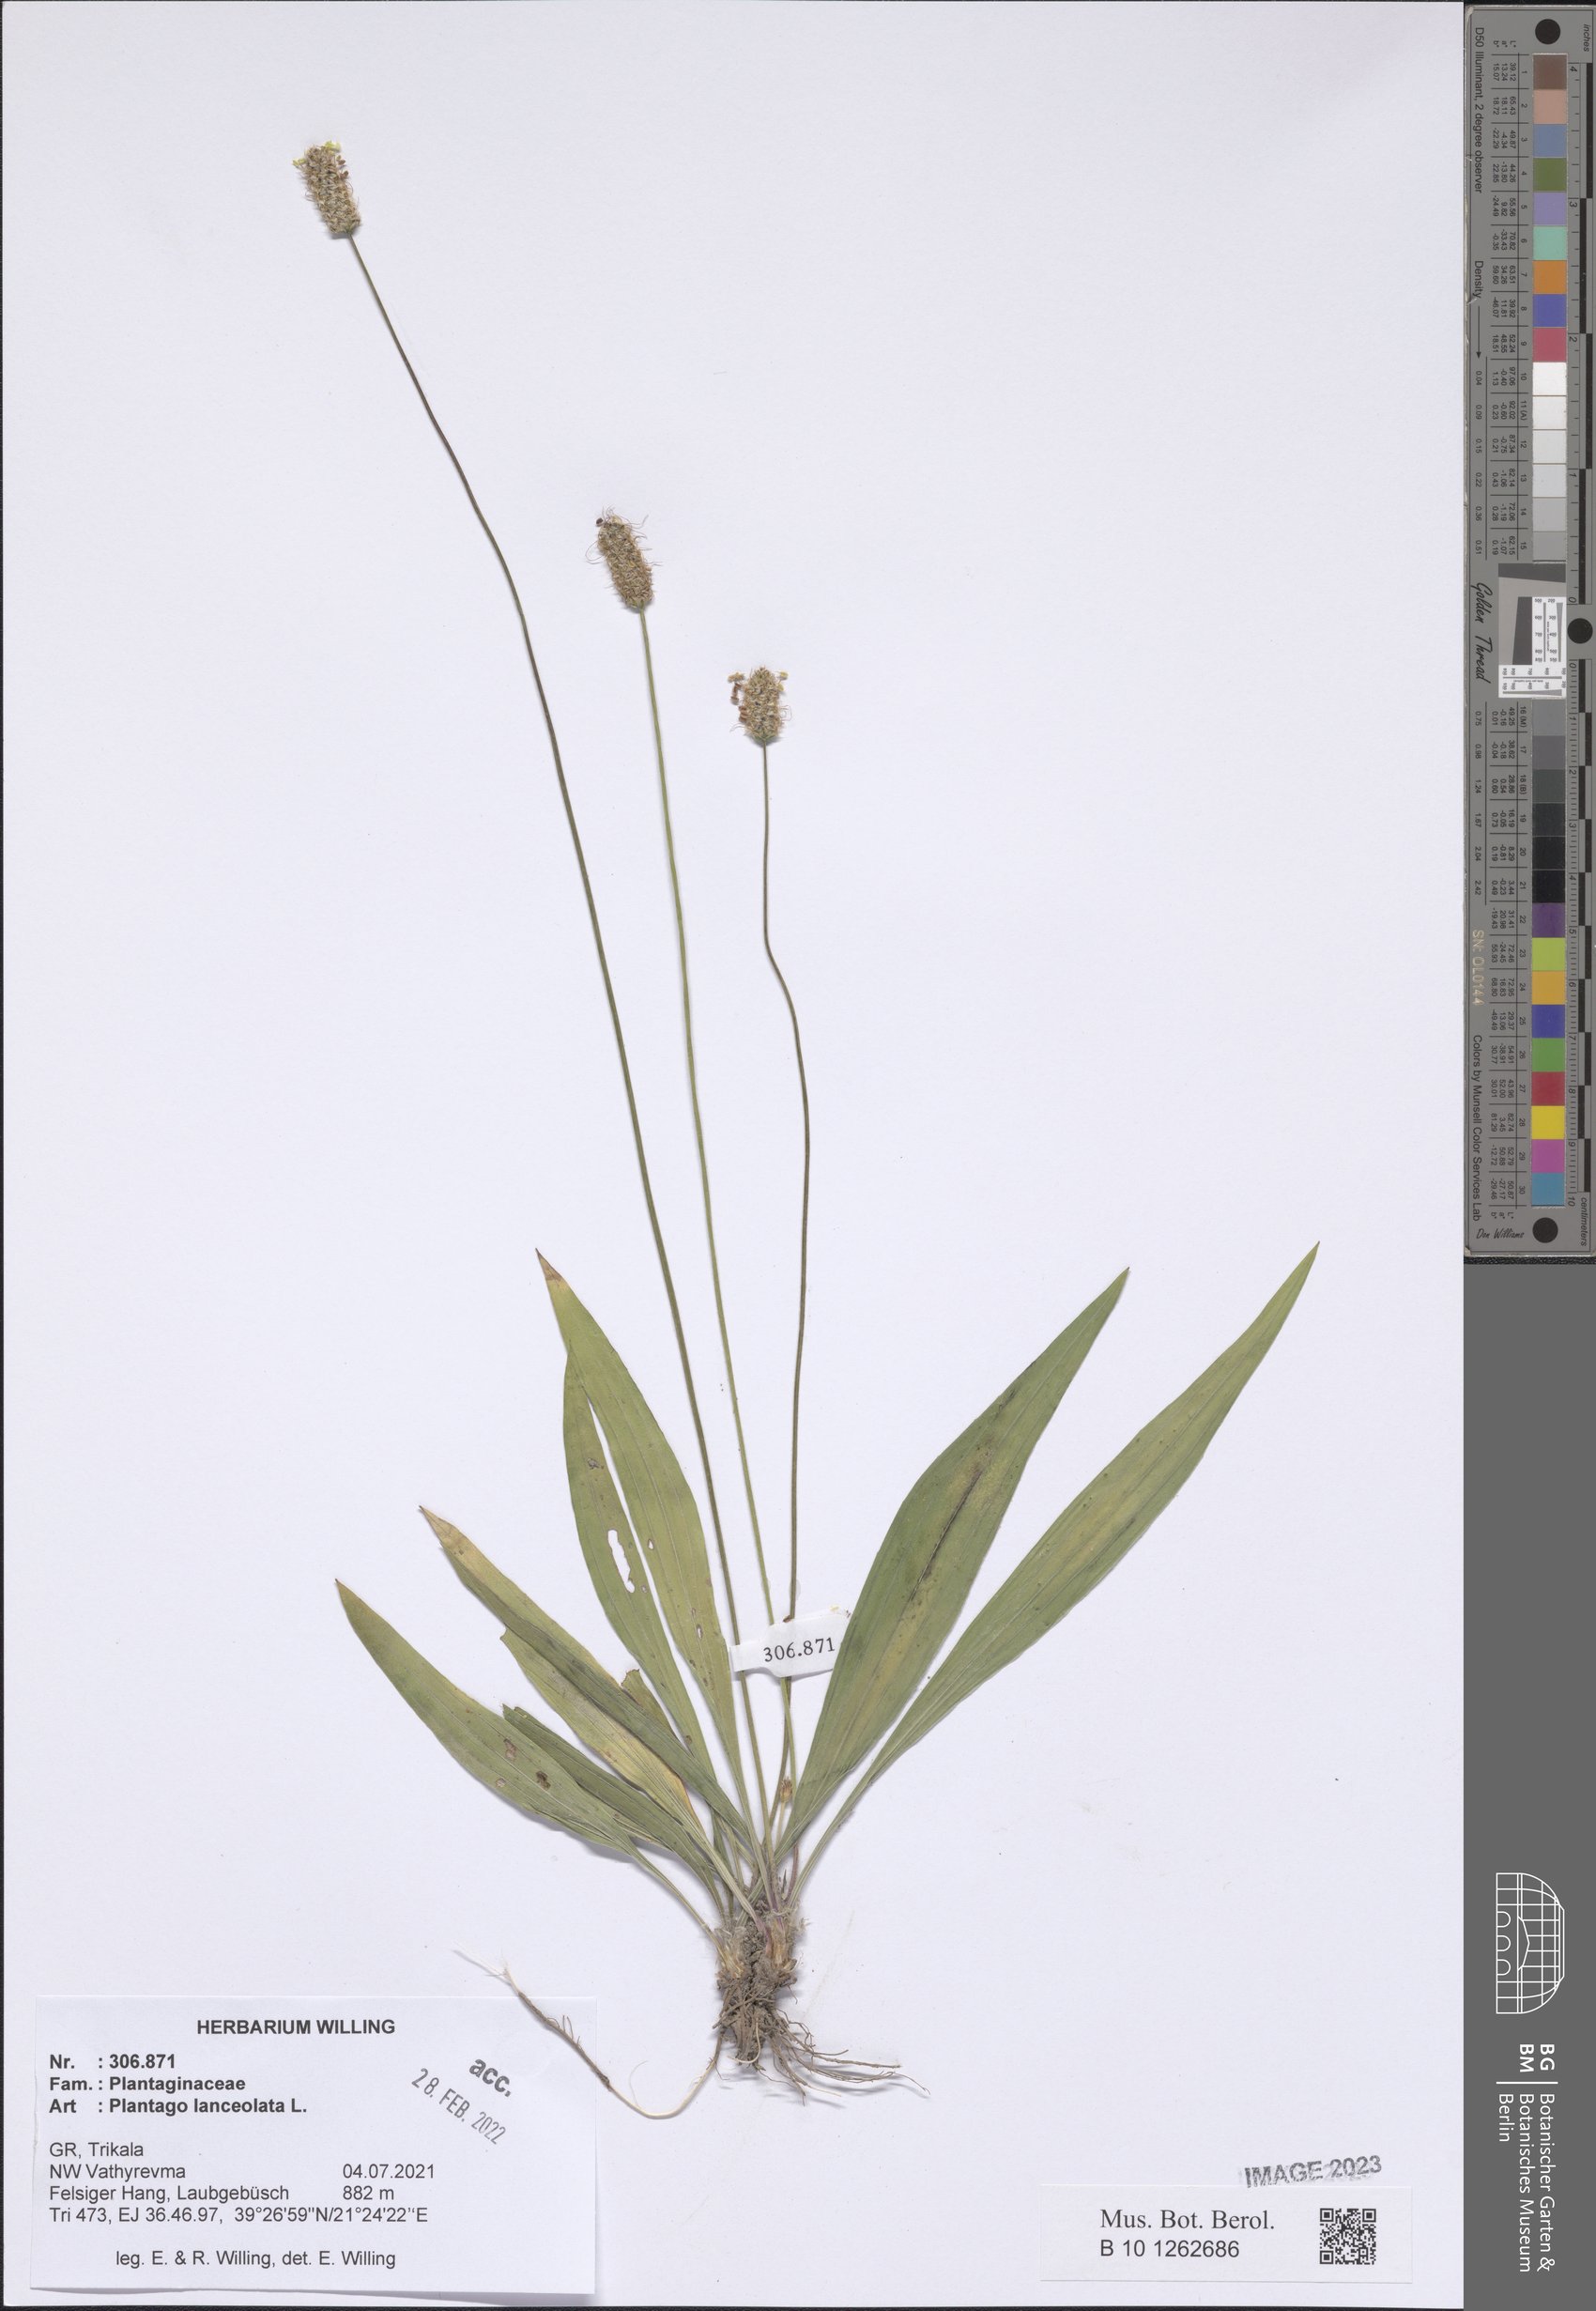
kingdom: Plantae
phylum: Tracheophyta
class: Magnoliopsida
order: Lamiales
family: Plantaginaceae
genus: Plantago
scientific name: Plantago lanceolata
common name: Ribwort plantain
